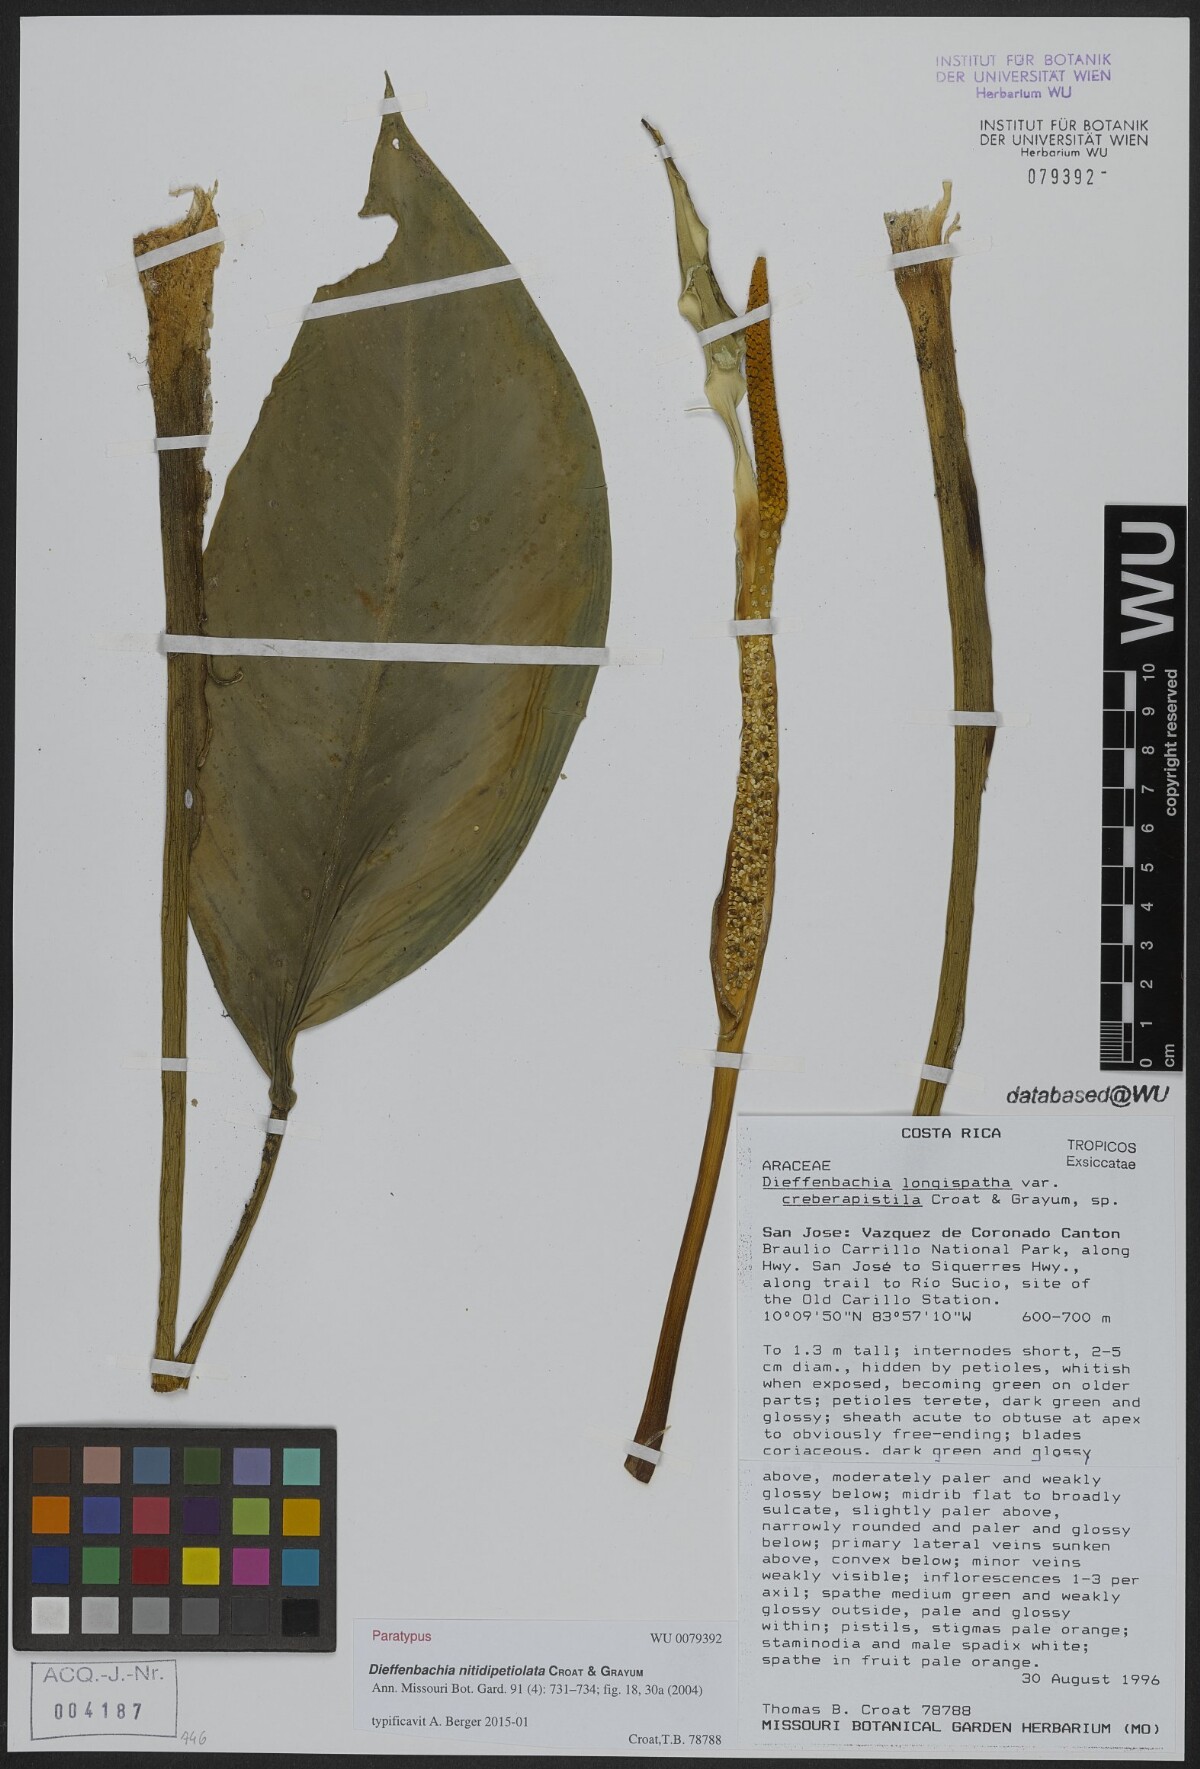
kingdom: Plantae
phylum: Tracheophyta
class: Liliopsida
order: Alismatales
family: Araceae
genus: Dieffenbachia
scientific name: Dieffenbachia nitidipetiolata
